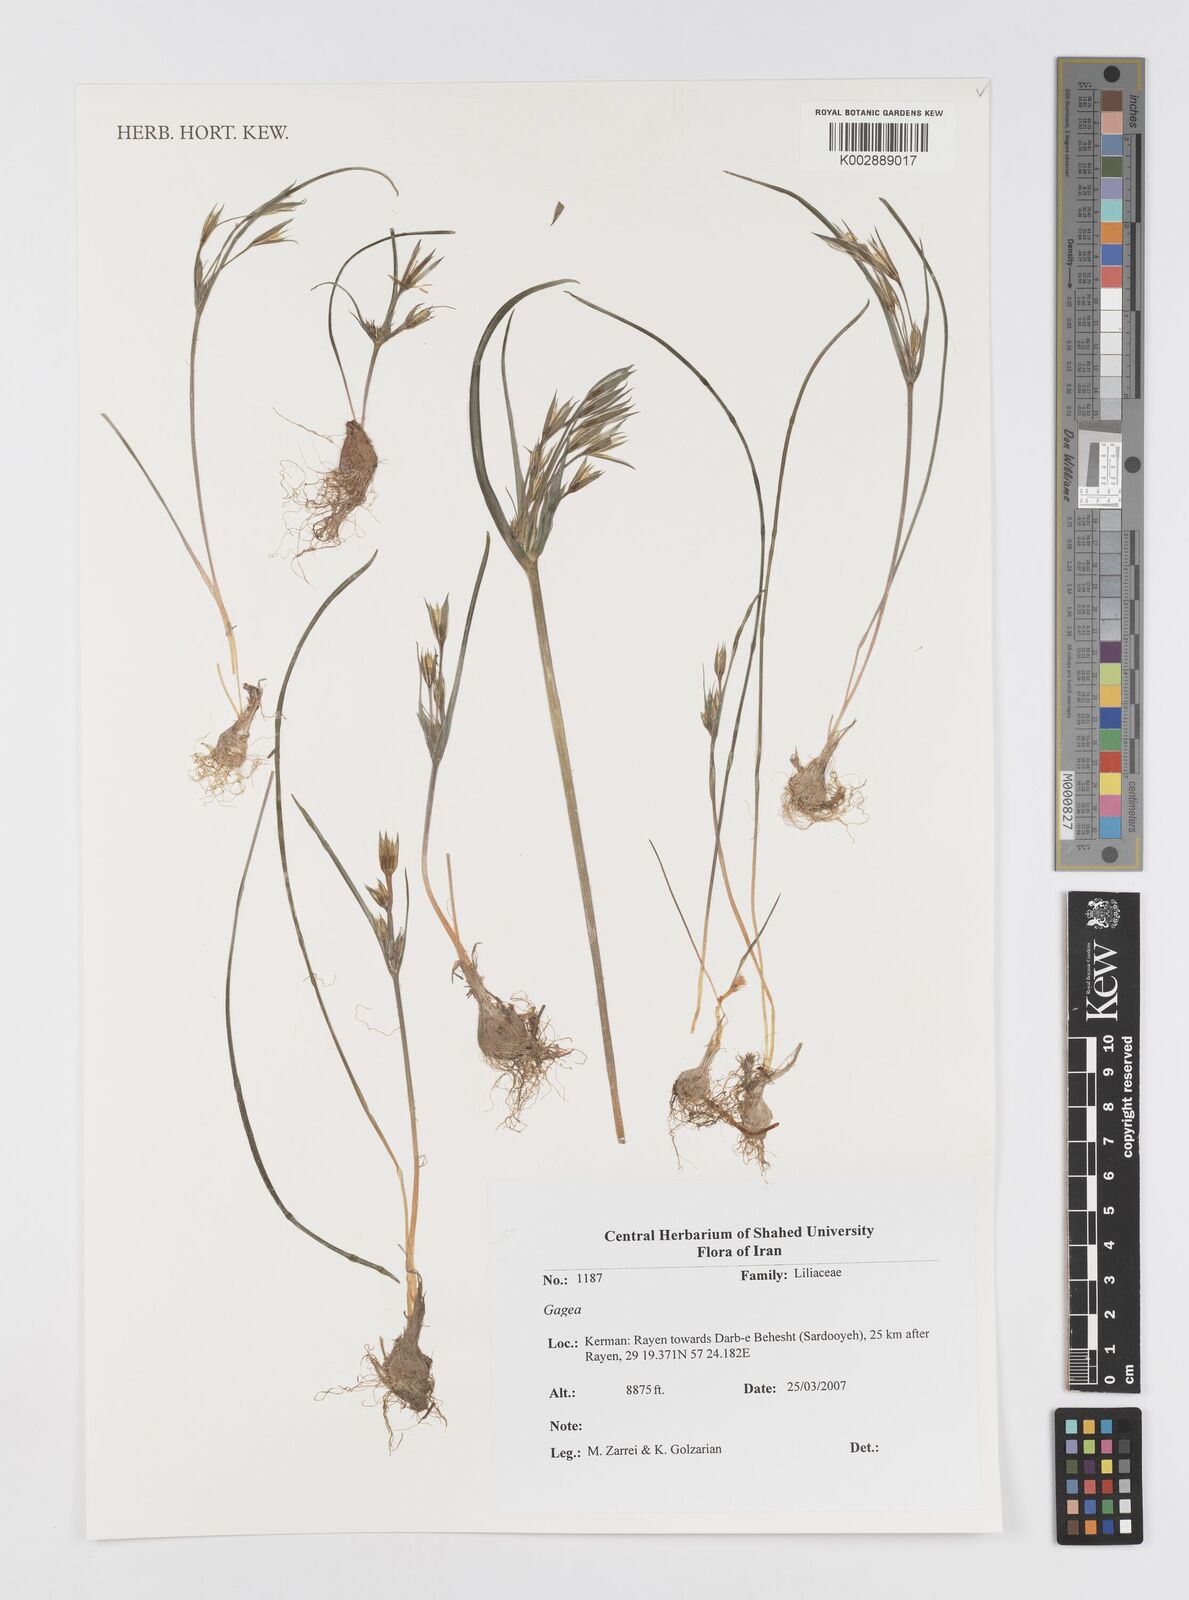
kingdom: Plantae
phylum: Tracheophyta
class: Liliopsida
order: Liliales
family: Liliaceae
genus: Gagea
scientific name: Gagea
